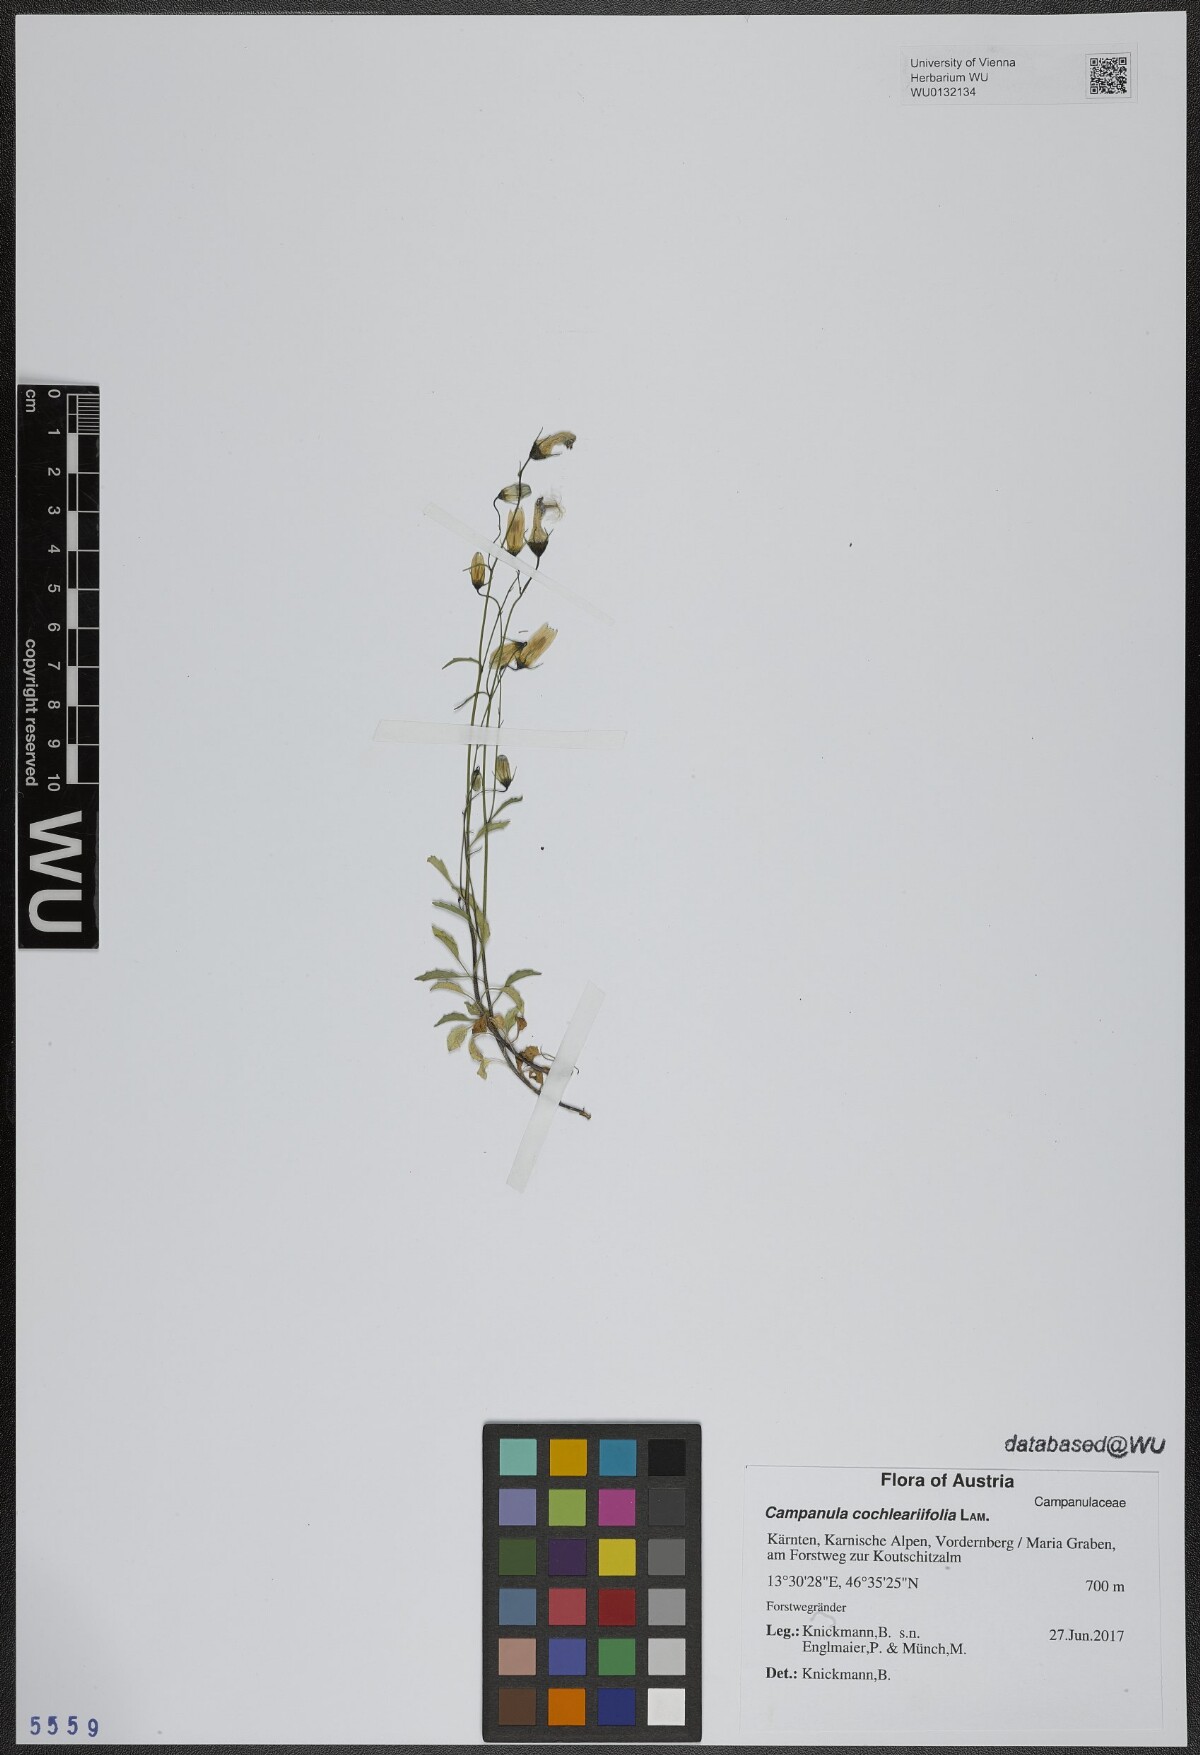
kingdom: Plantae
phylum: Tracheophyta
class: Magnoliopsida
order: Asterales
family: Campanulaceae
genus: Campanula
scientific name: Campanula cochleariifolia
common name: Fairies'-thimbles
